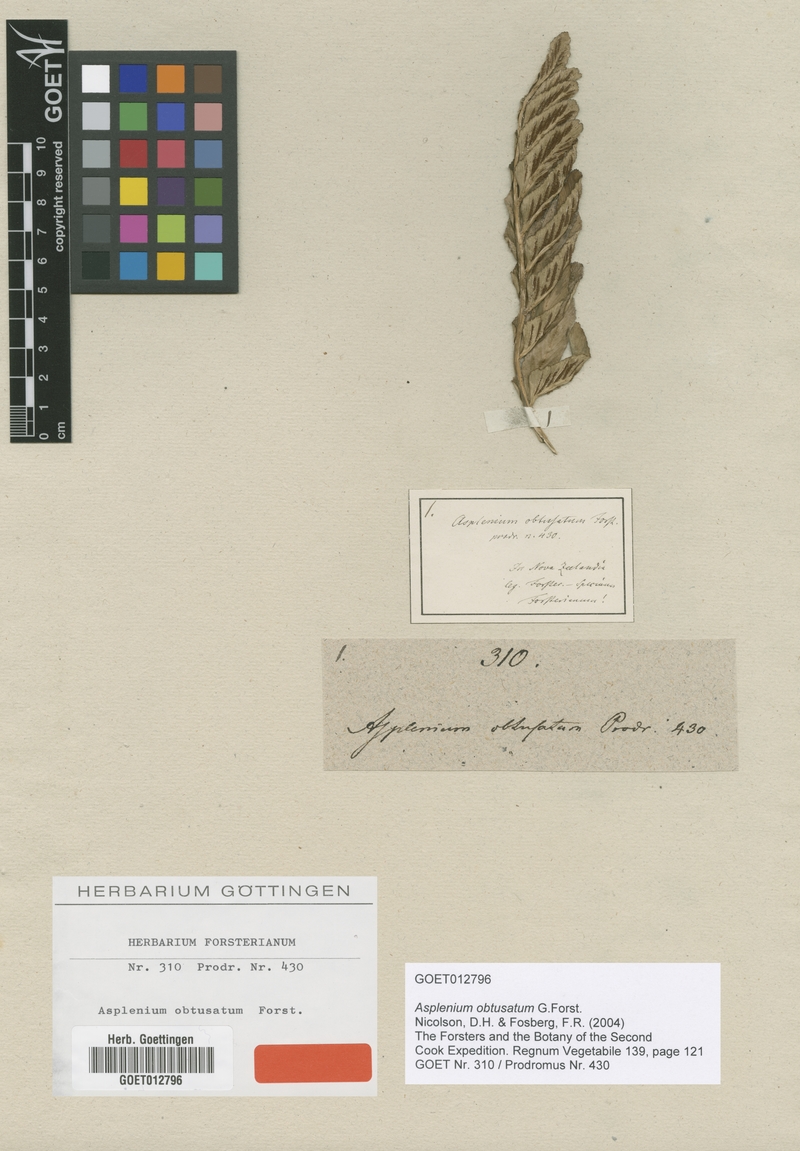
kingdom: Plantae
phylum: Tracheophyta
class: Polypodiopsida
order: Polypodiales
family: Aspleniaceae
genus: Asplenium
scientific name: Asplenium obtusatum
